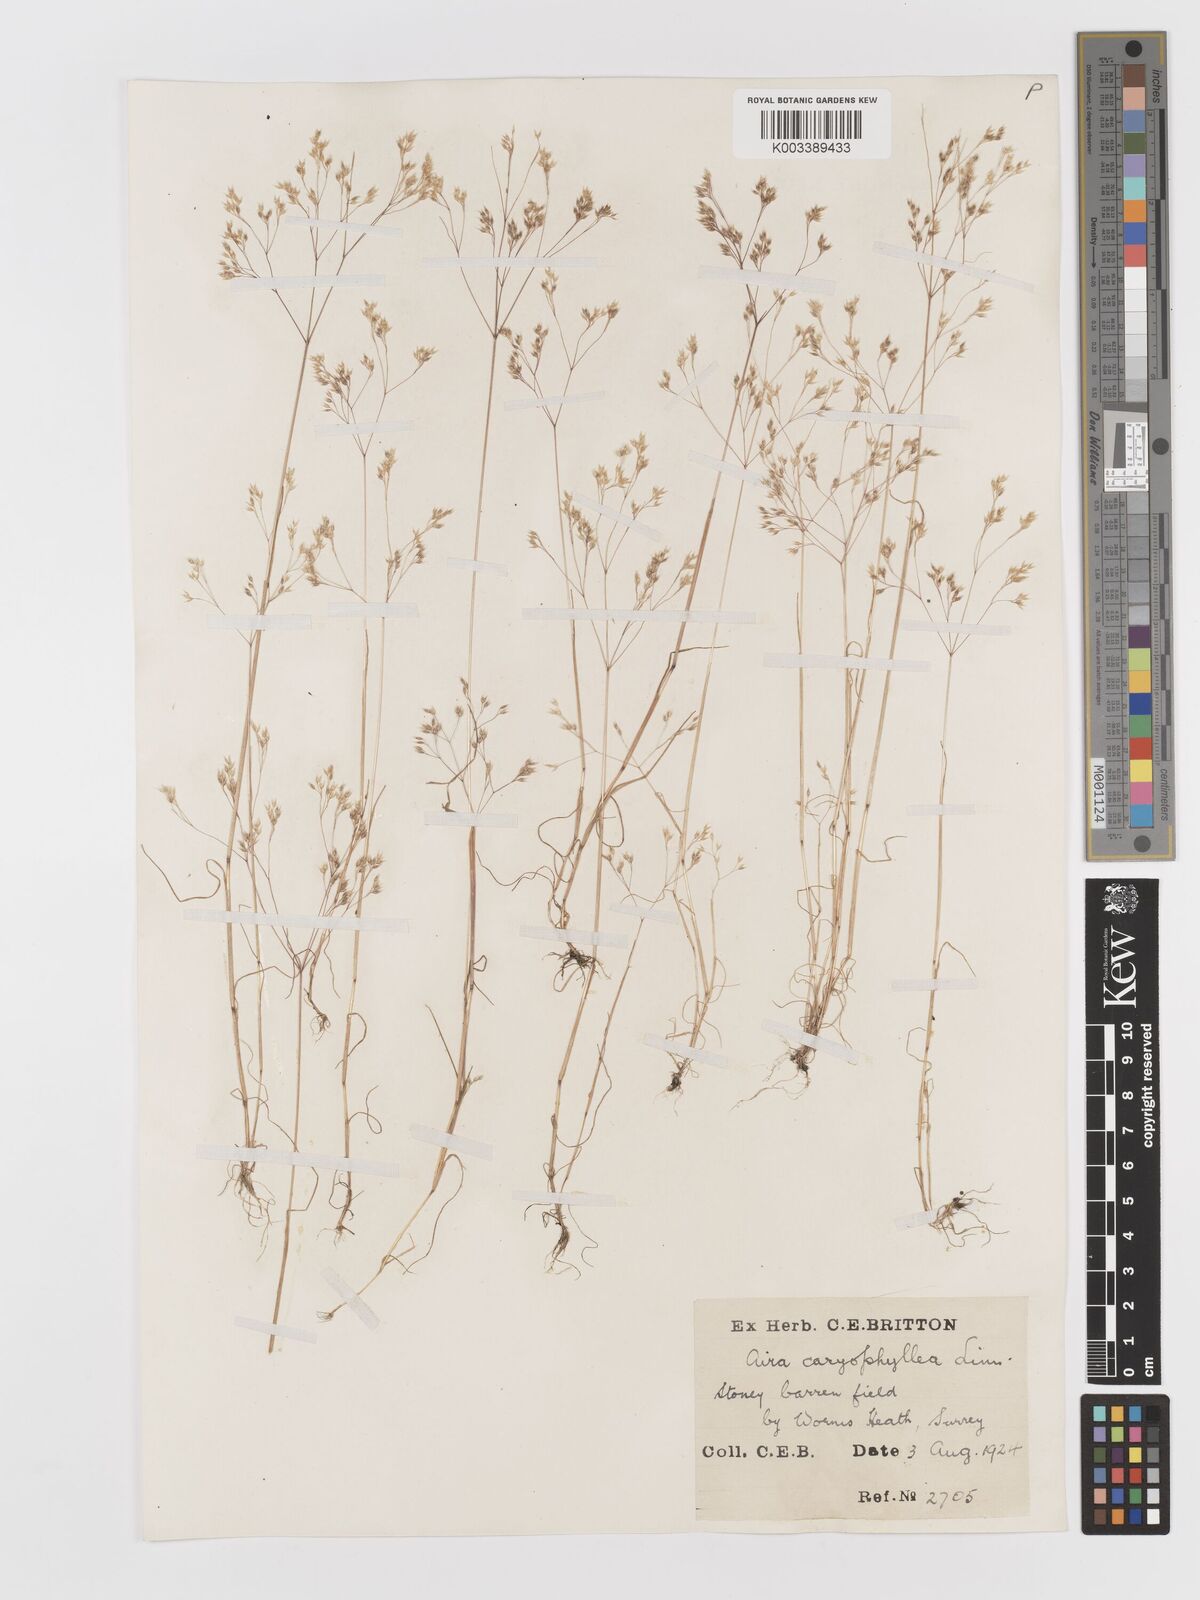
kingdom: Plantae
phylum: Tracheophyta
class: Liliopsida
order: Poales
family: Poaceae
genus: Aira
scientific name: Aira caryophyllea
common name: Silver hairgrass
